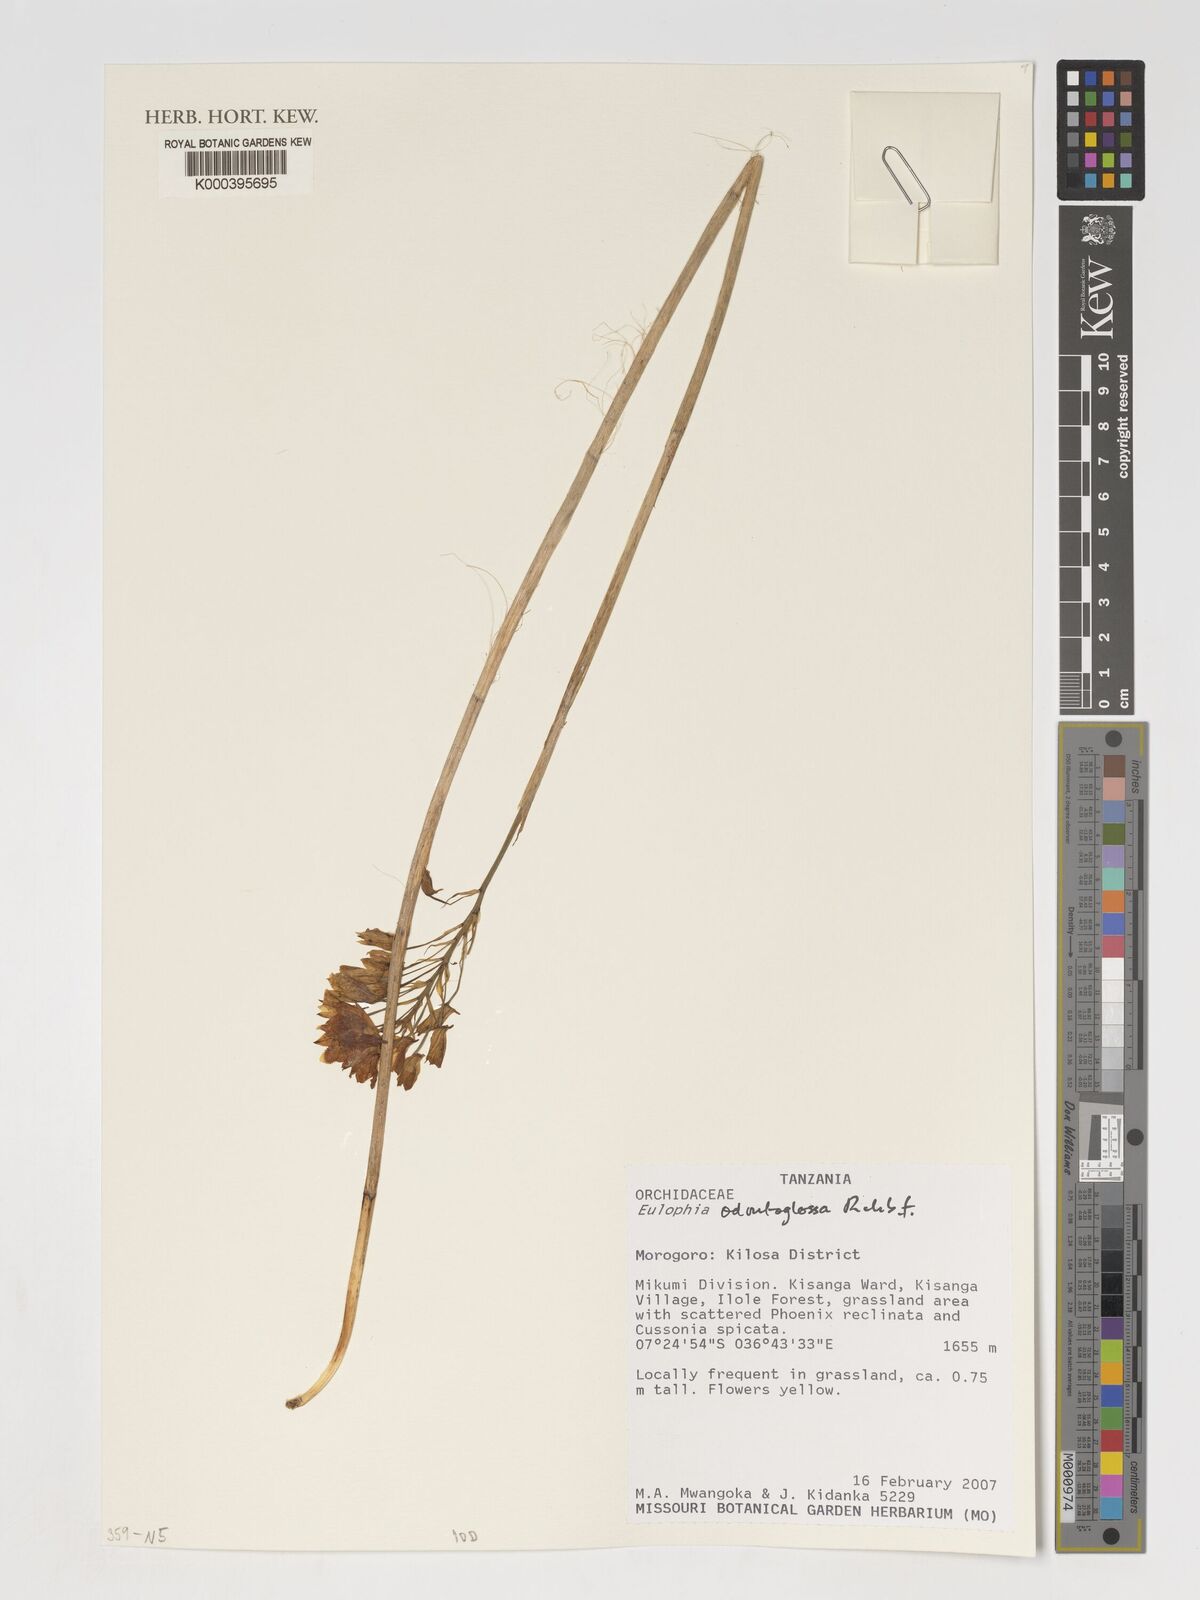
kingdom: Plantae
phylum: Tracheophyta
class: Liliopsida
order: Asparagales
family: Orchidaceae
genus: Eulophia
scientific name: Eulophia odontoglossa
